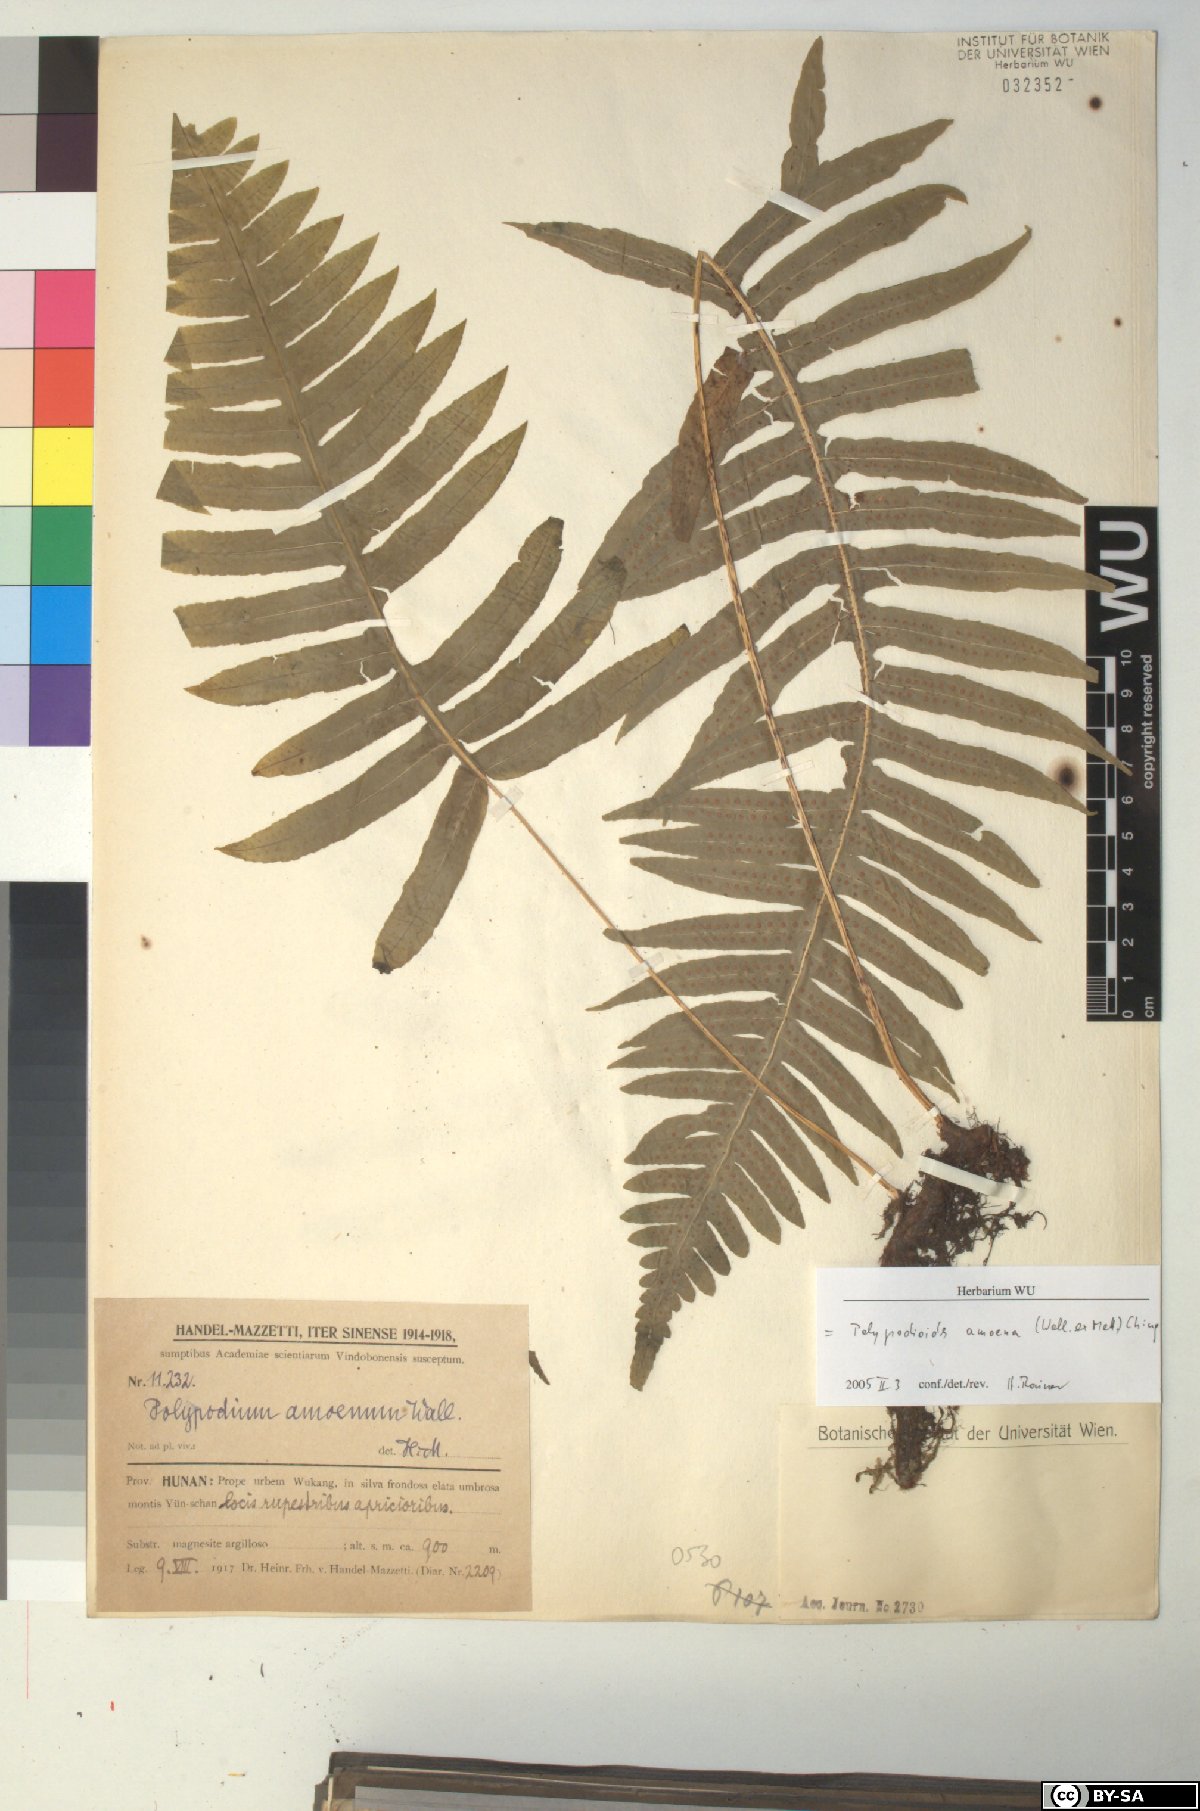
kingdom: Plantae
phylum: Tracheophyta
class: Polypodiopsida
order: Polypodiales
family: Polypodiaceae
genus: Goniophlebium
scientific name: Goniophlebium amoenum
